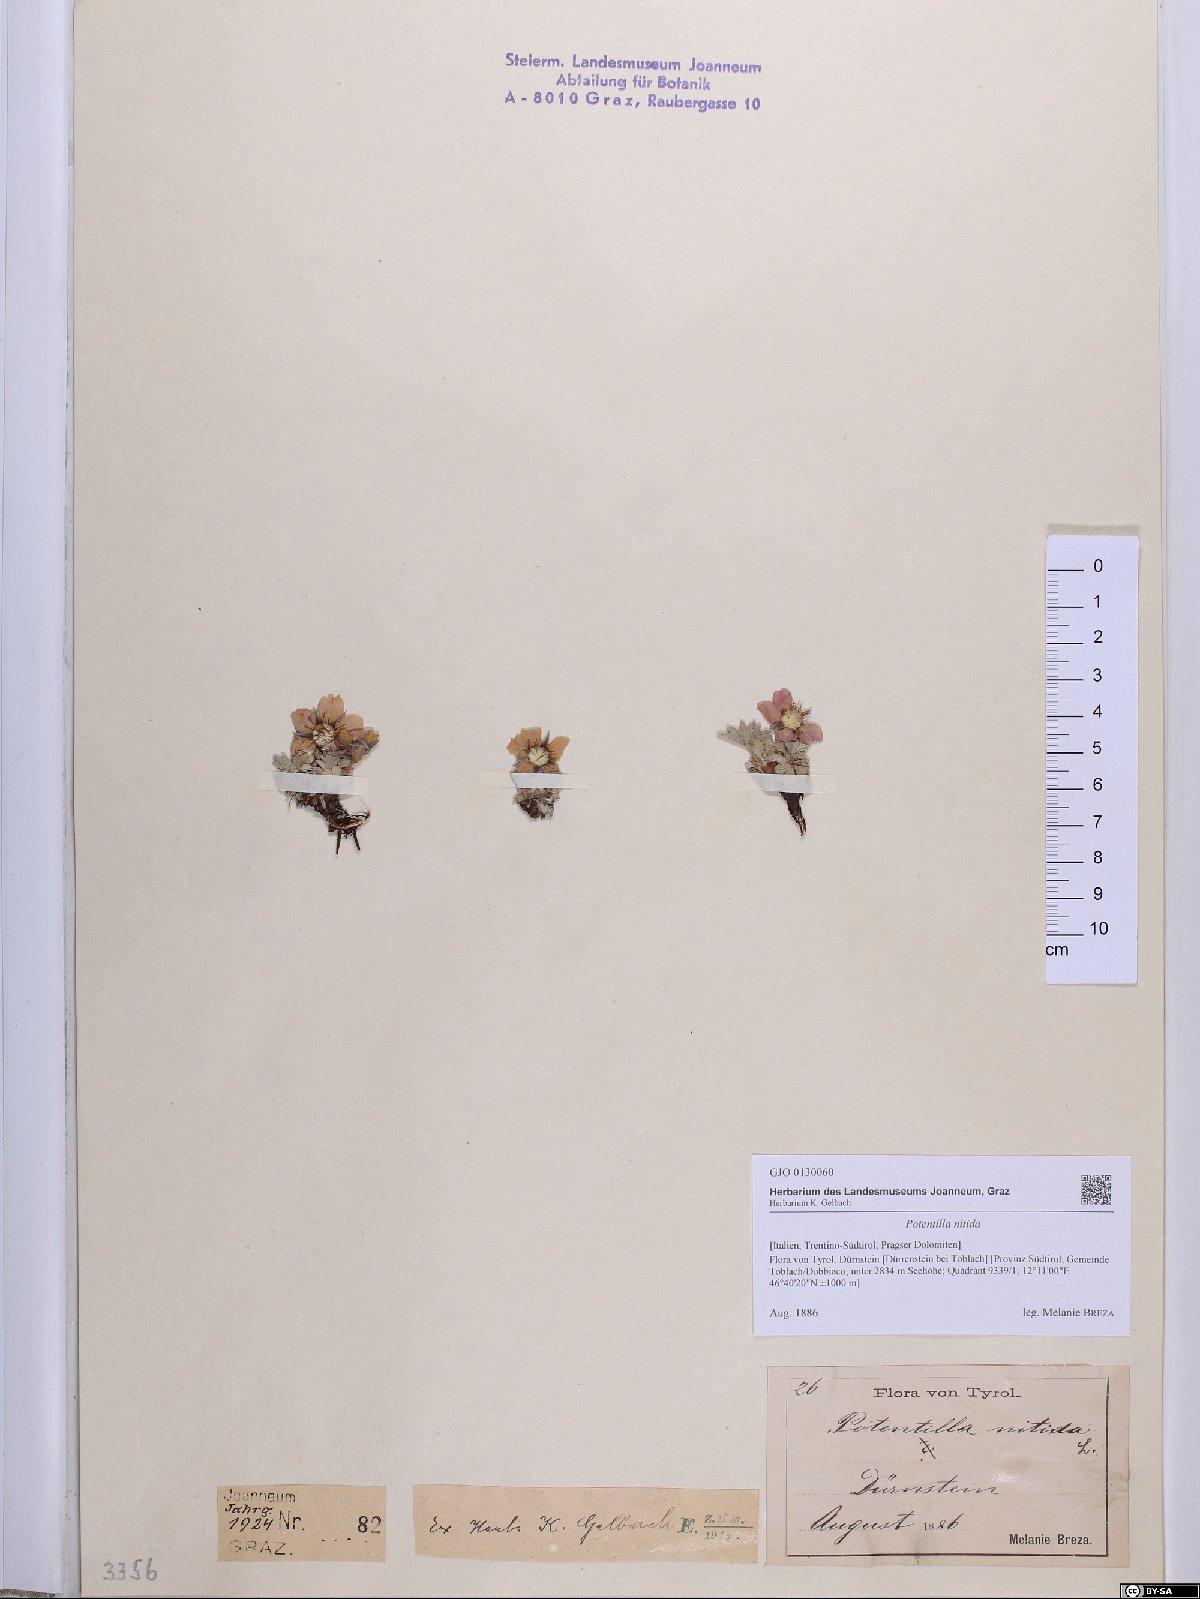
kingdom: Plantae
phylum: Tracheophyta
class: Magnoliopsida
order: Rosales
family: Rosaceae
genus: Potentilla
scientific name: Potentilla nitida
